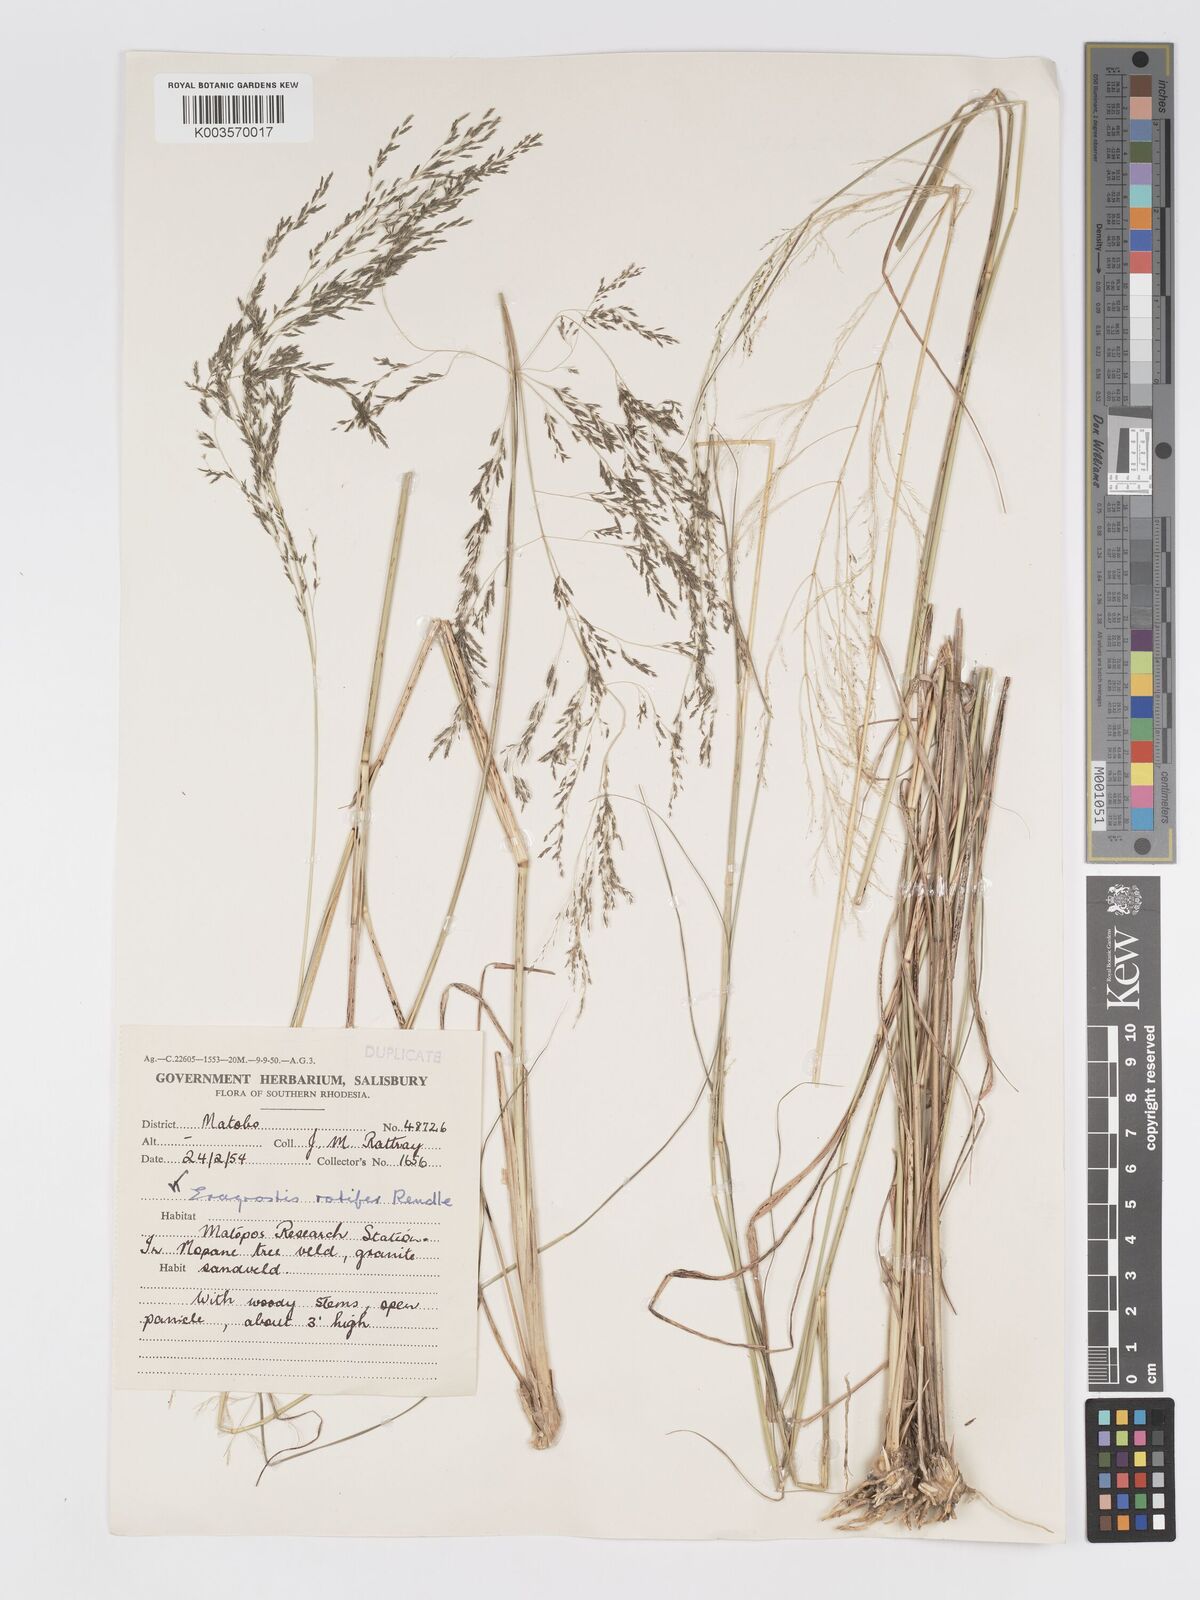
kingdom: Plantae
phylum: Tracheophyta
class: Liliopsida
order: Poales
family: Poaceae
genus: Eragrostis
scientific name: Eragrostis rotifer
